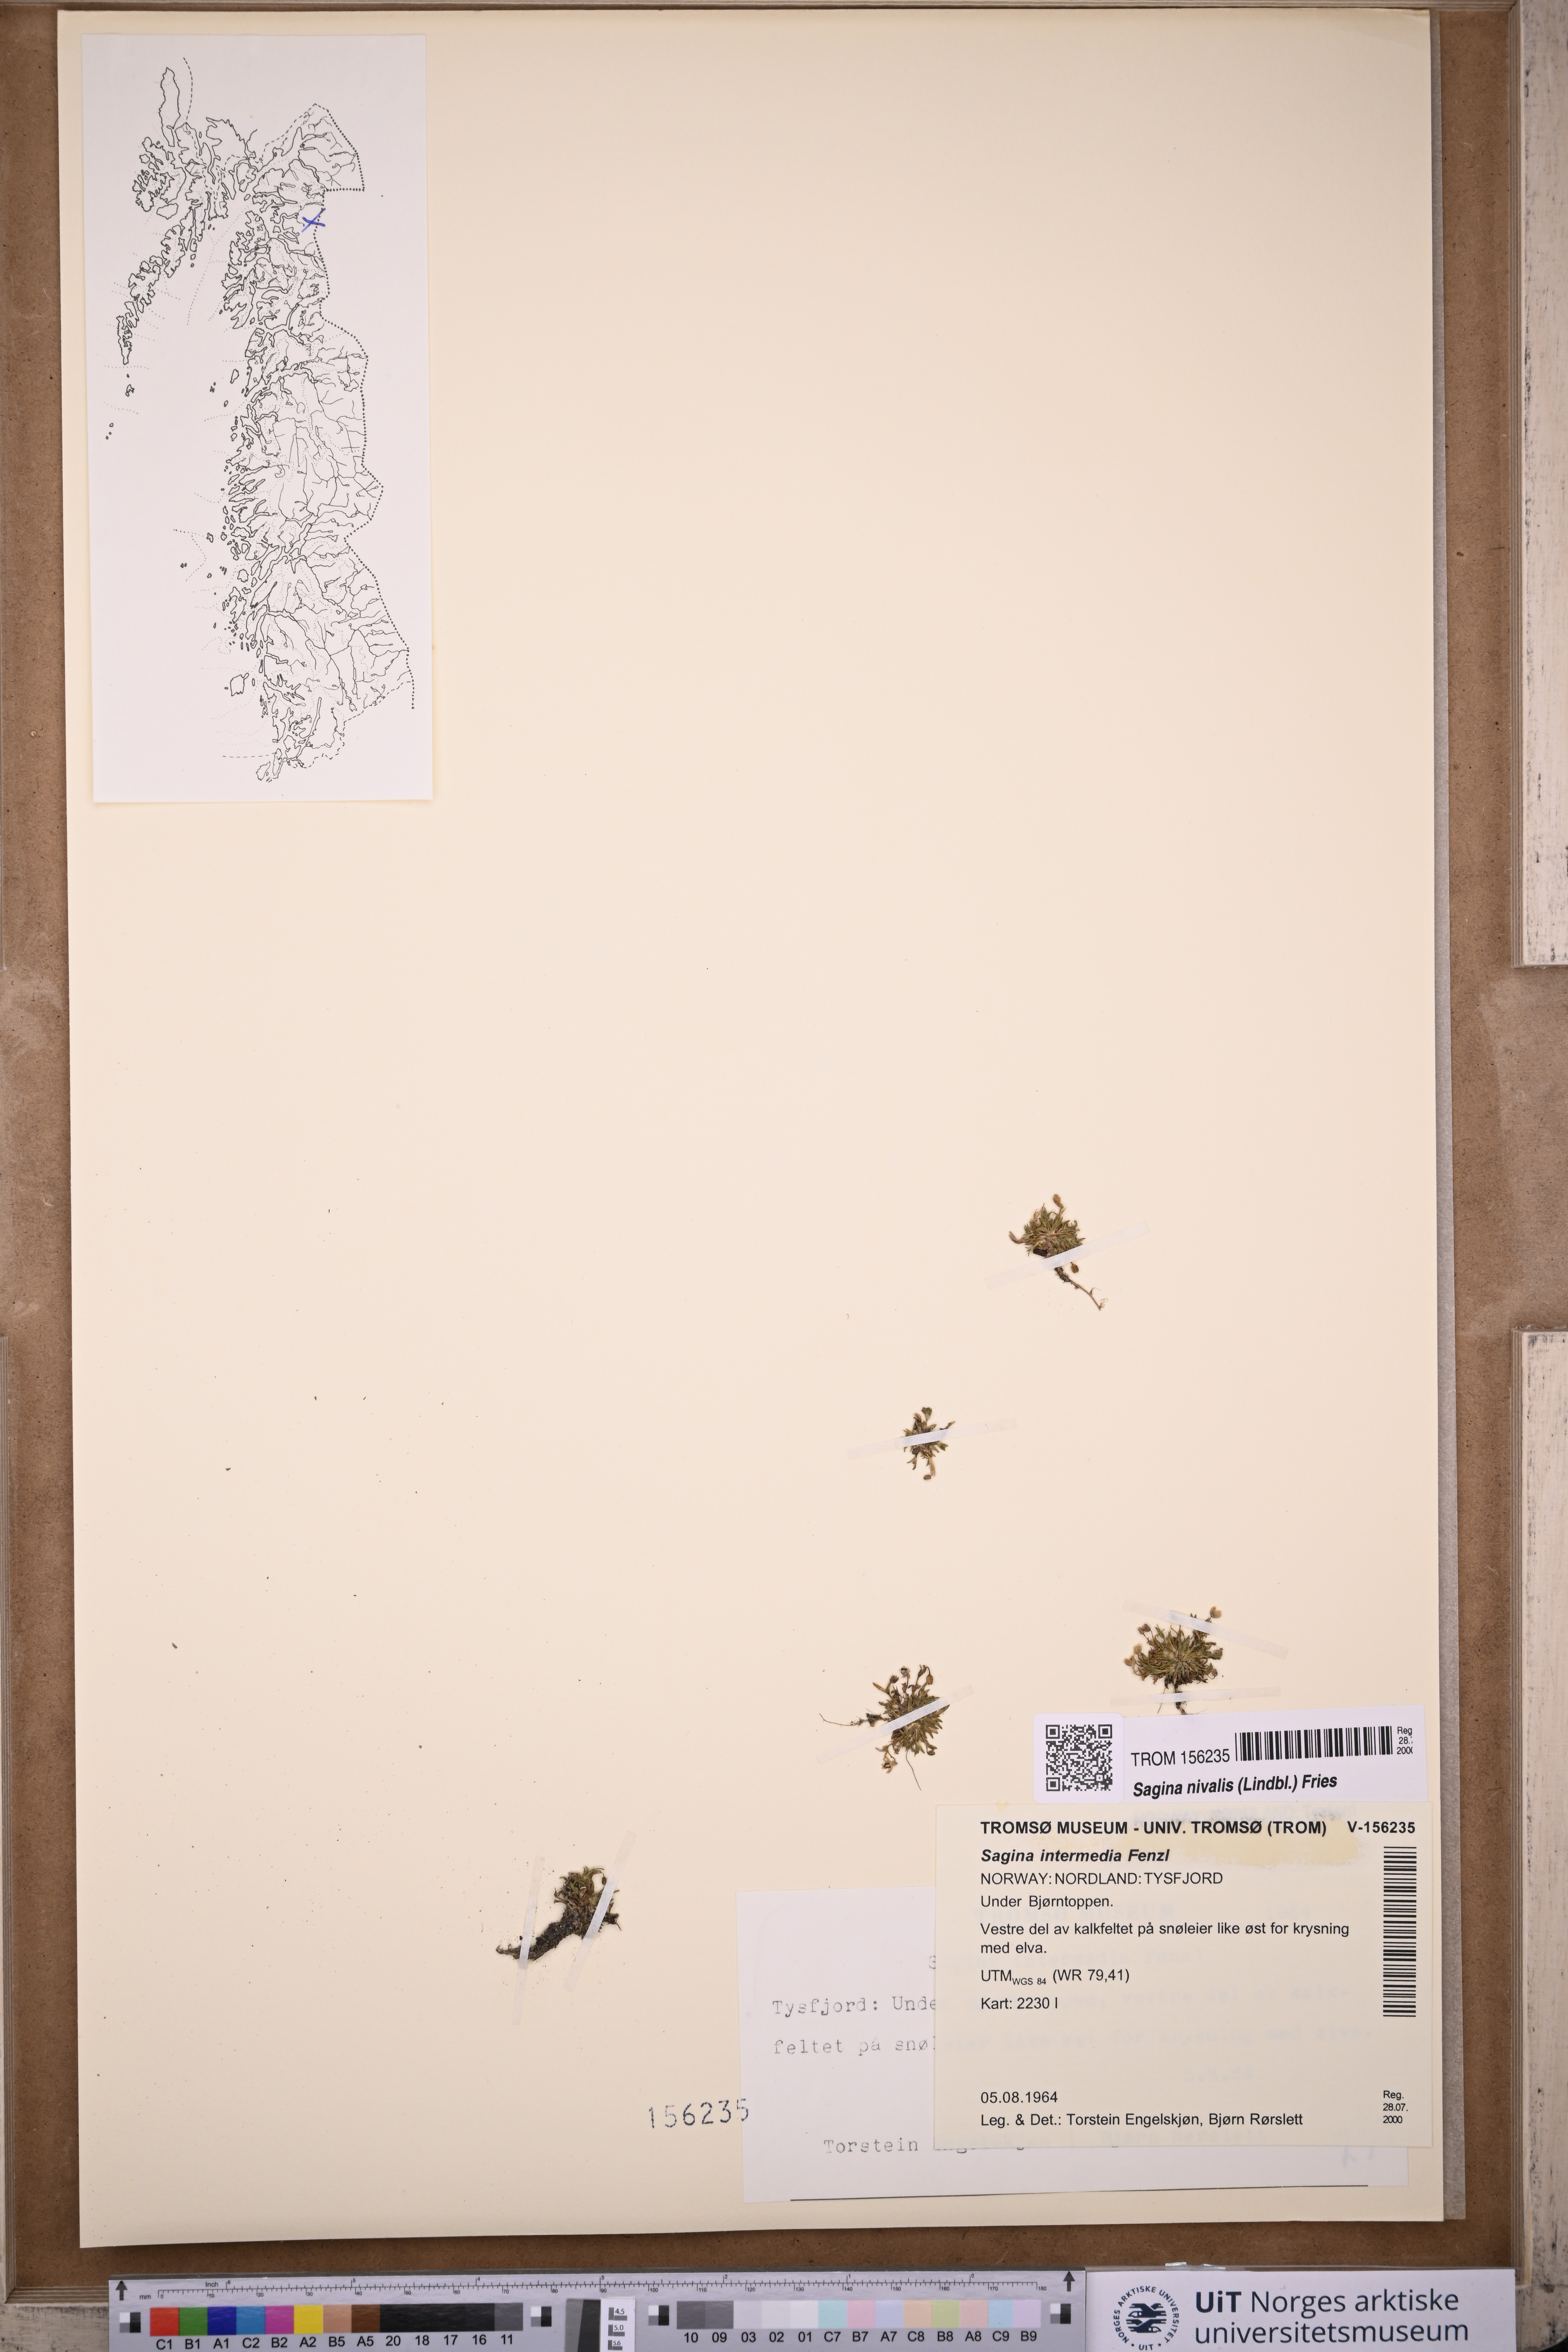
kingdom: Plantae
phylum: Tracheophyta
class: Magnoliopsida
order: Caryophyllales
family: Caryophyllaceae
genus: Sagina
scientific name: Sagina nivalis
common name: Snow pearlwort
